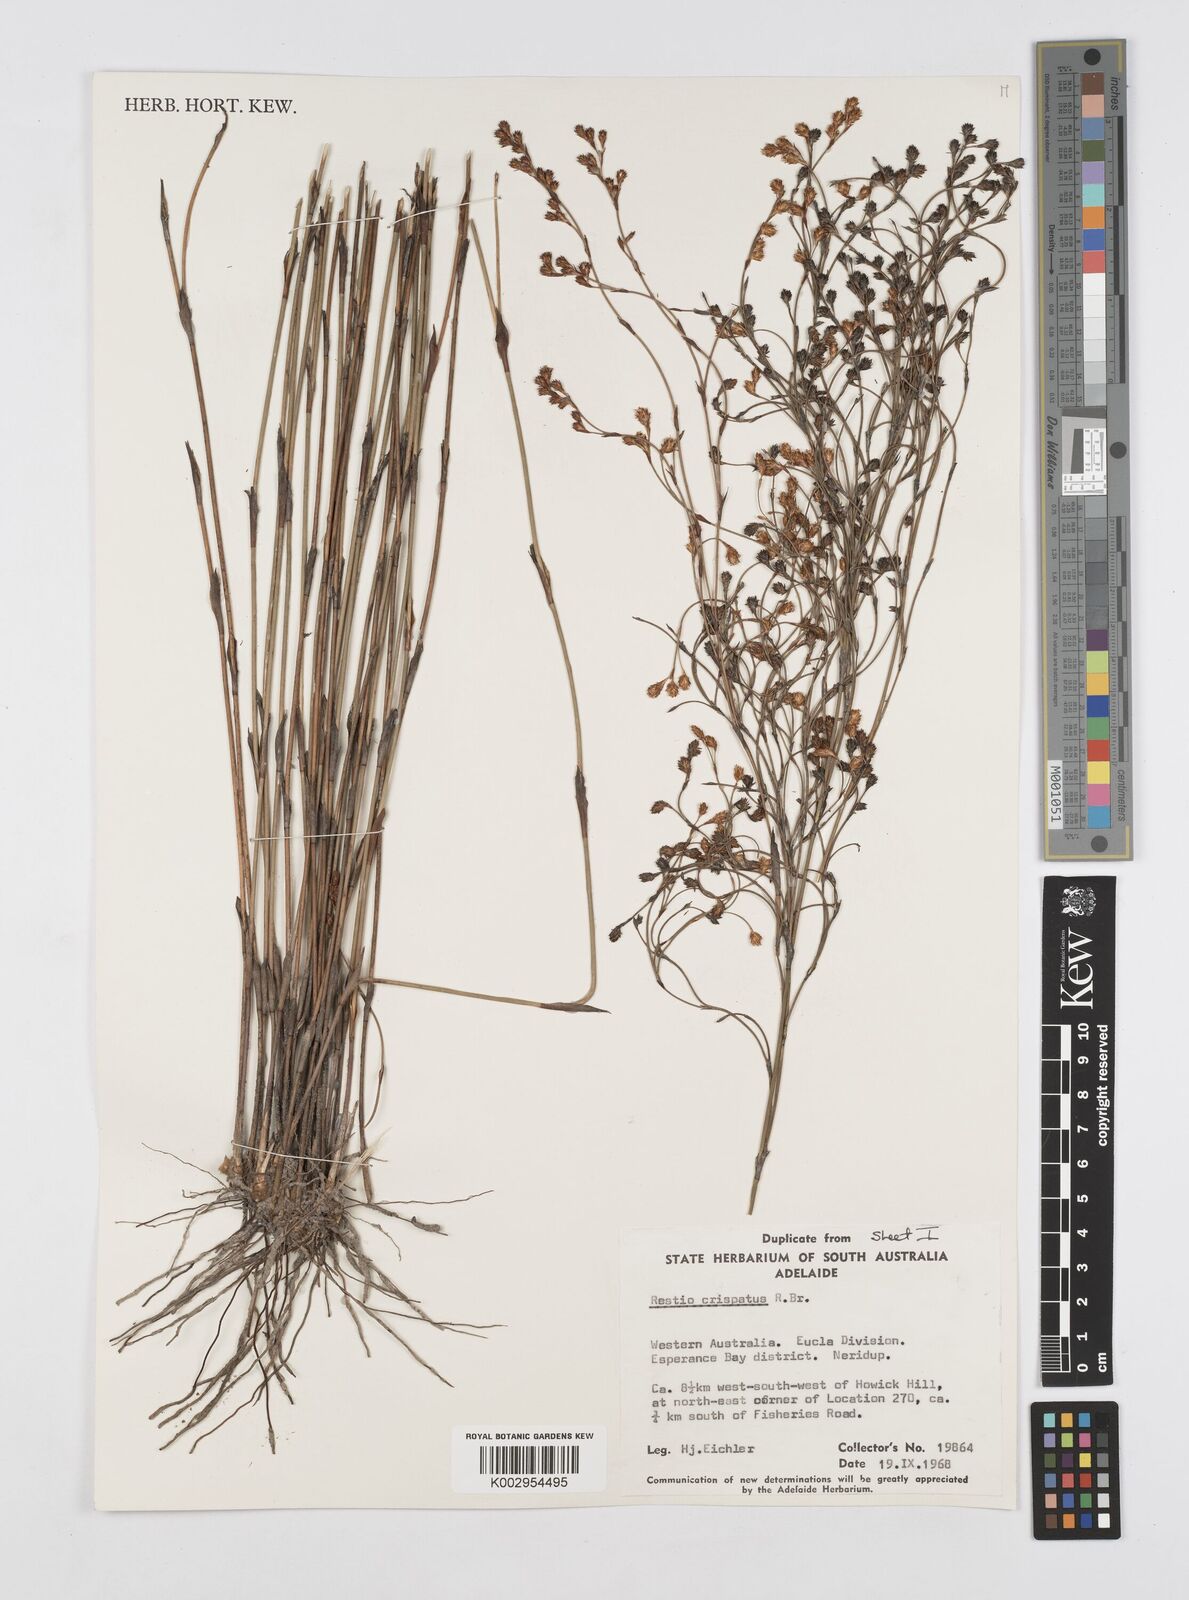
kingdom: Plantae
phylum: Tracheophyta
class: Liliopsida
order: Poales
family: Restionaceae
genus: Chordifex
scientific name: Chordifex crispatus
